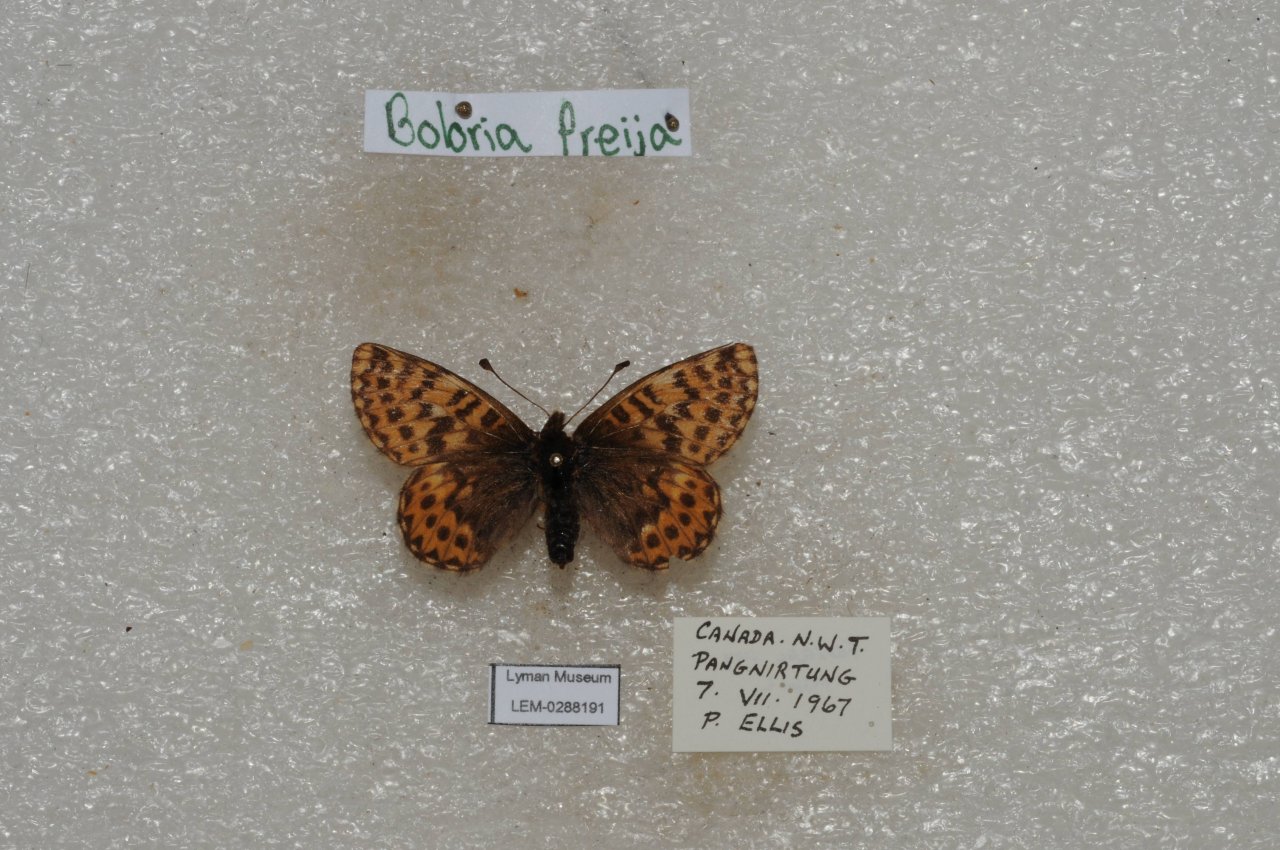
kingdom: Animalia
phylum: Arthropoda
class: Insecta
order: Lepidoptera
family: Nymphalidae
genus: Boloria
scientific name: Boloria freija
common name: Freija Fritillary
